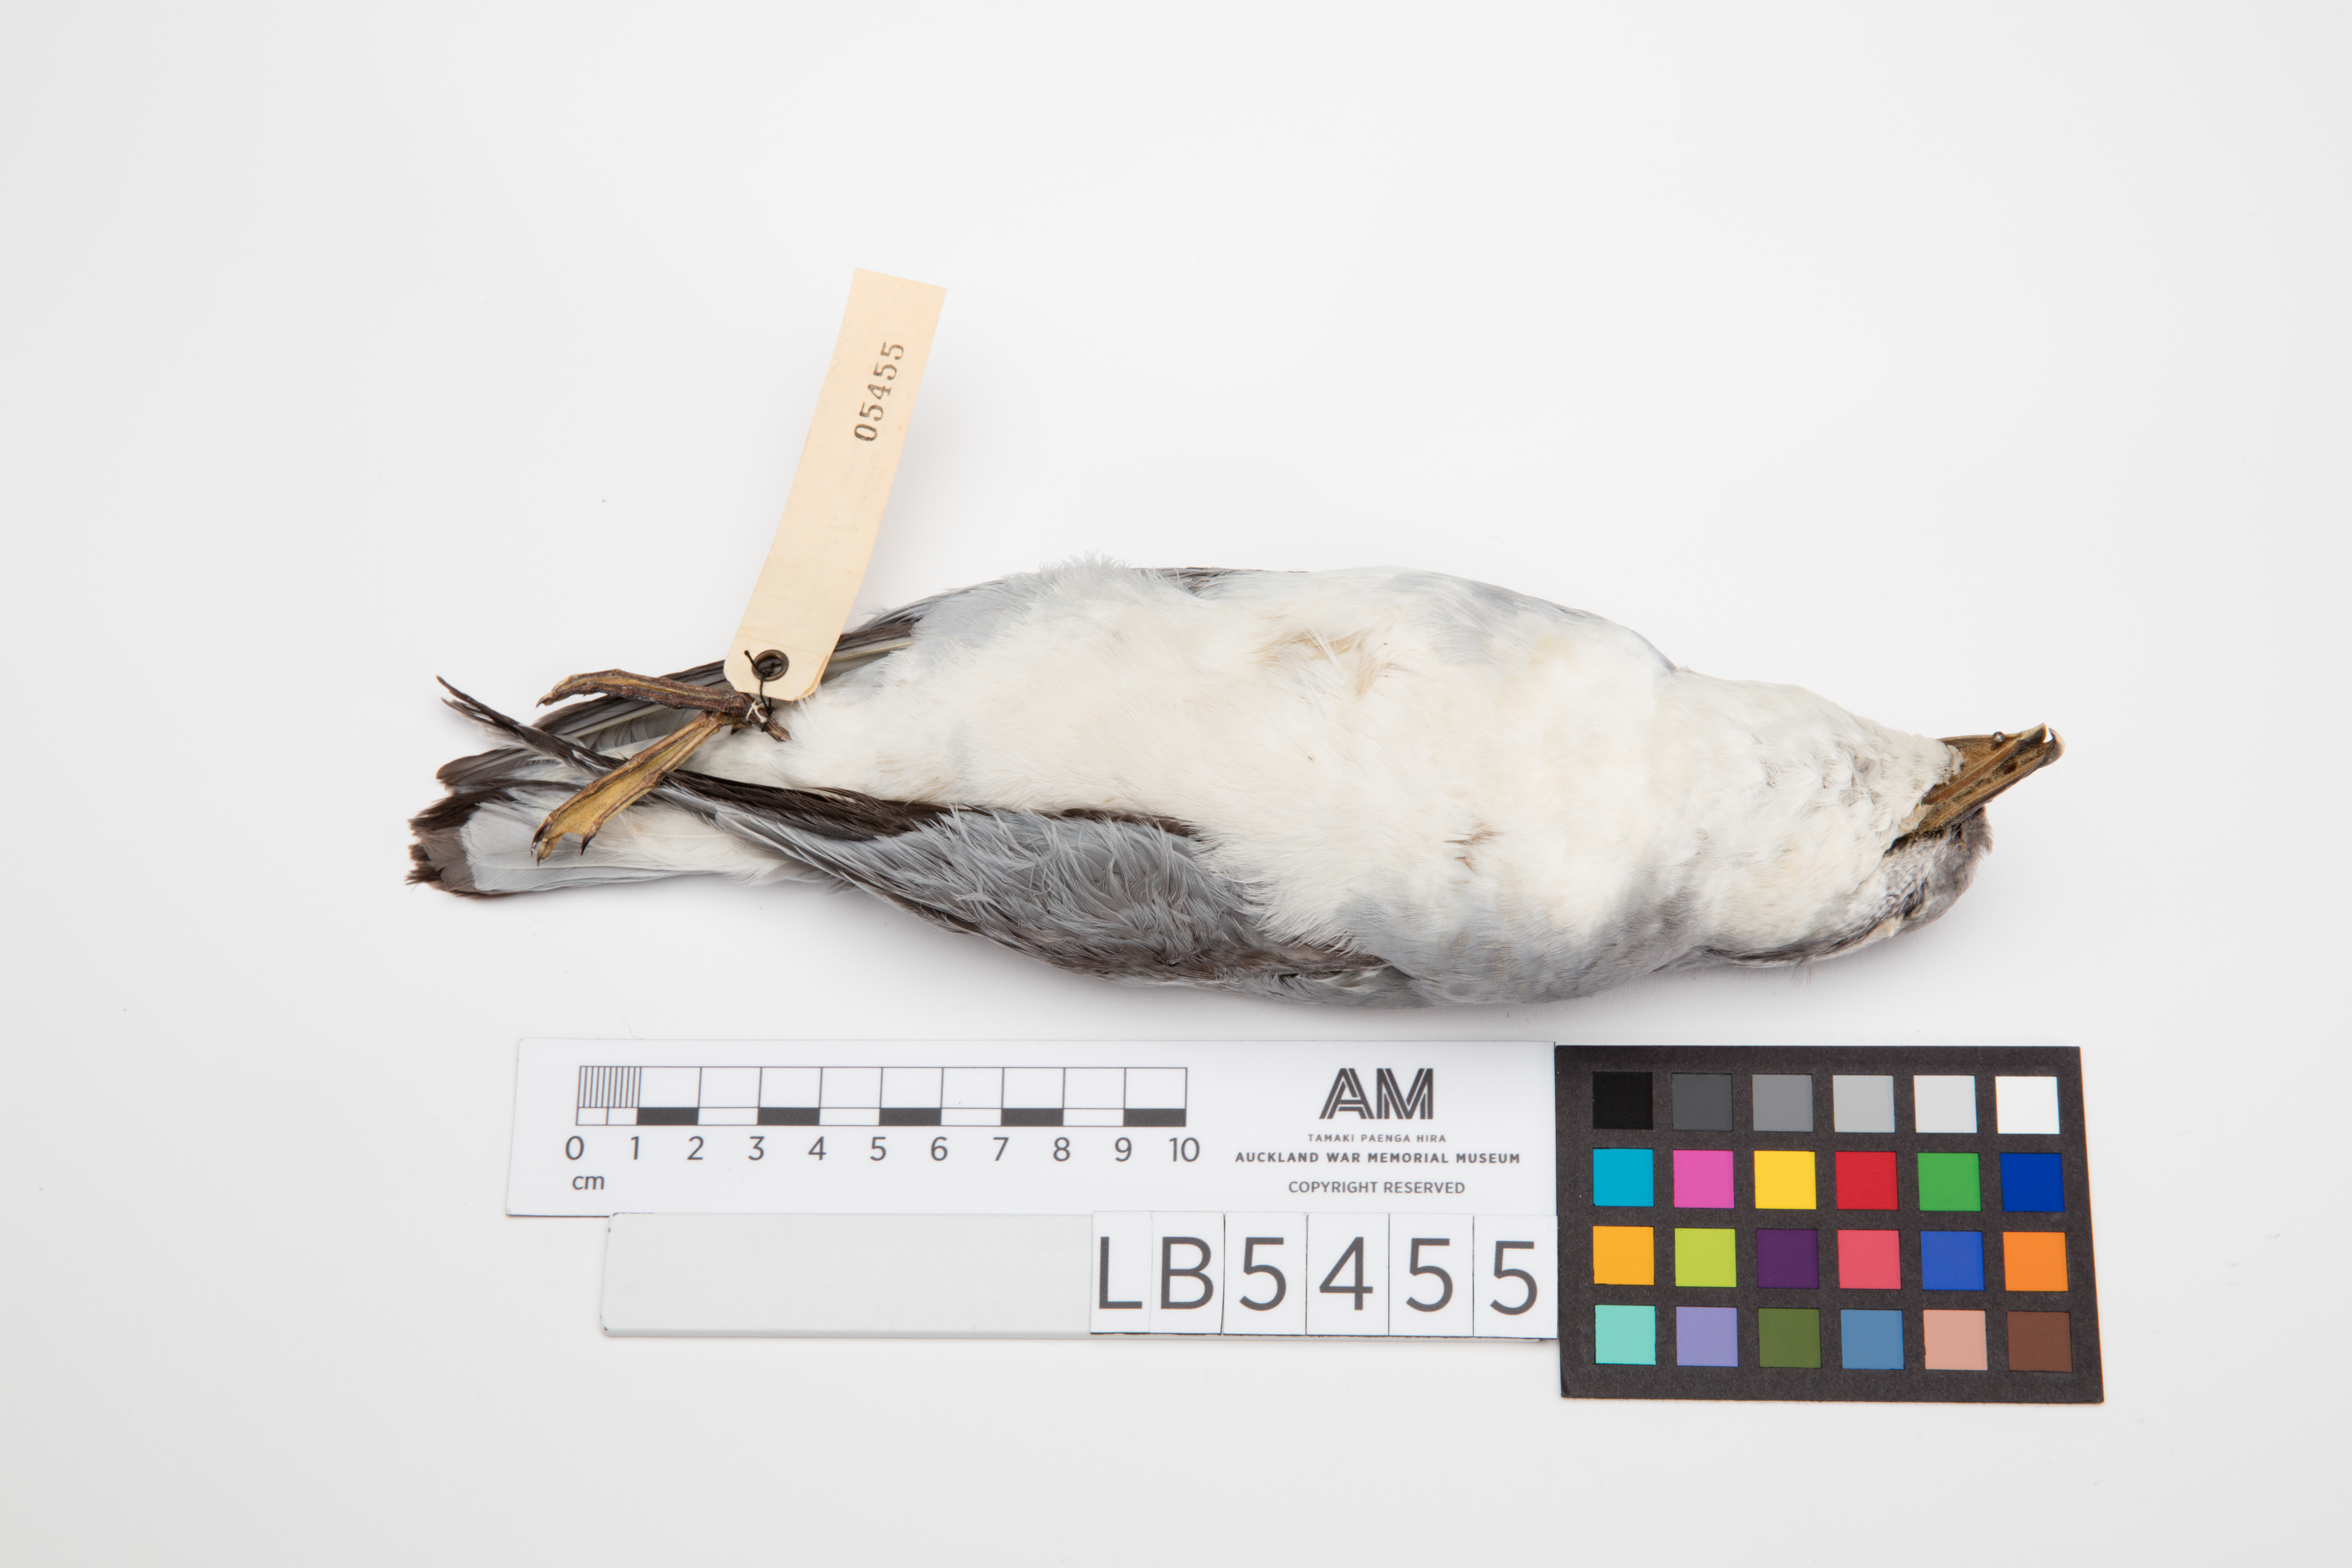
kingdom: Animalia
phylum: Chordata
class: Aves
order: Procellariiformes
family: Procellariidae
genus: Pachyptila
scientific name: Pachyptila salvini
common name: Salvin's prion
